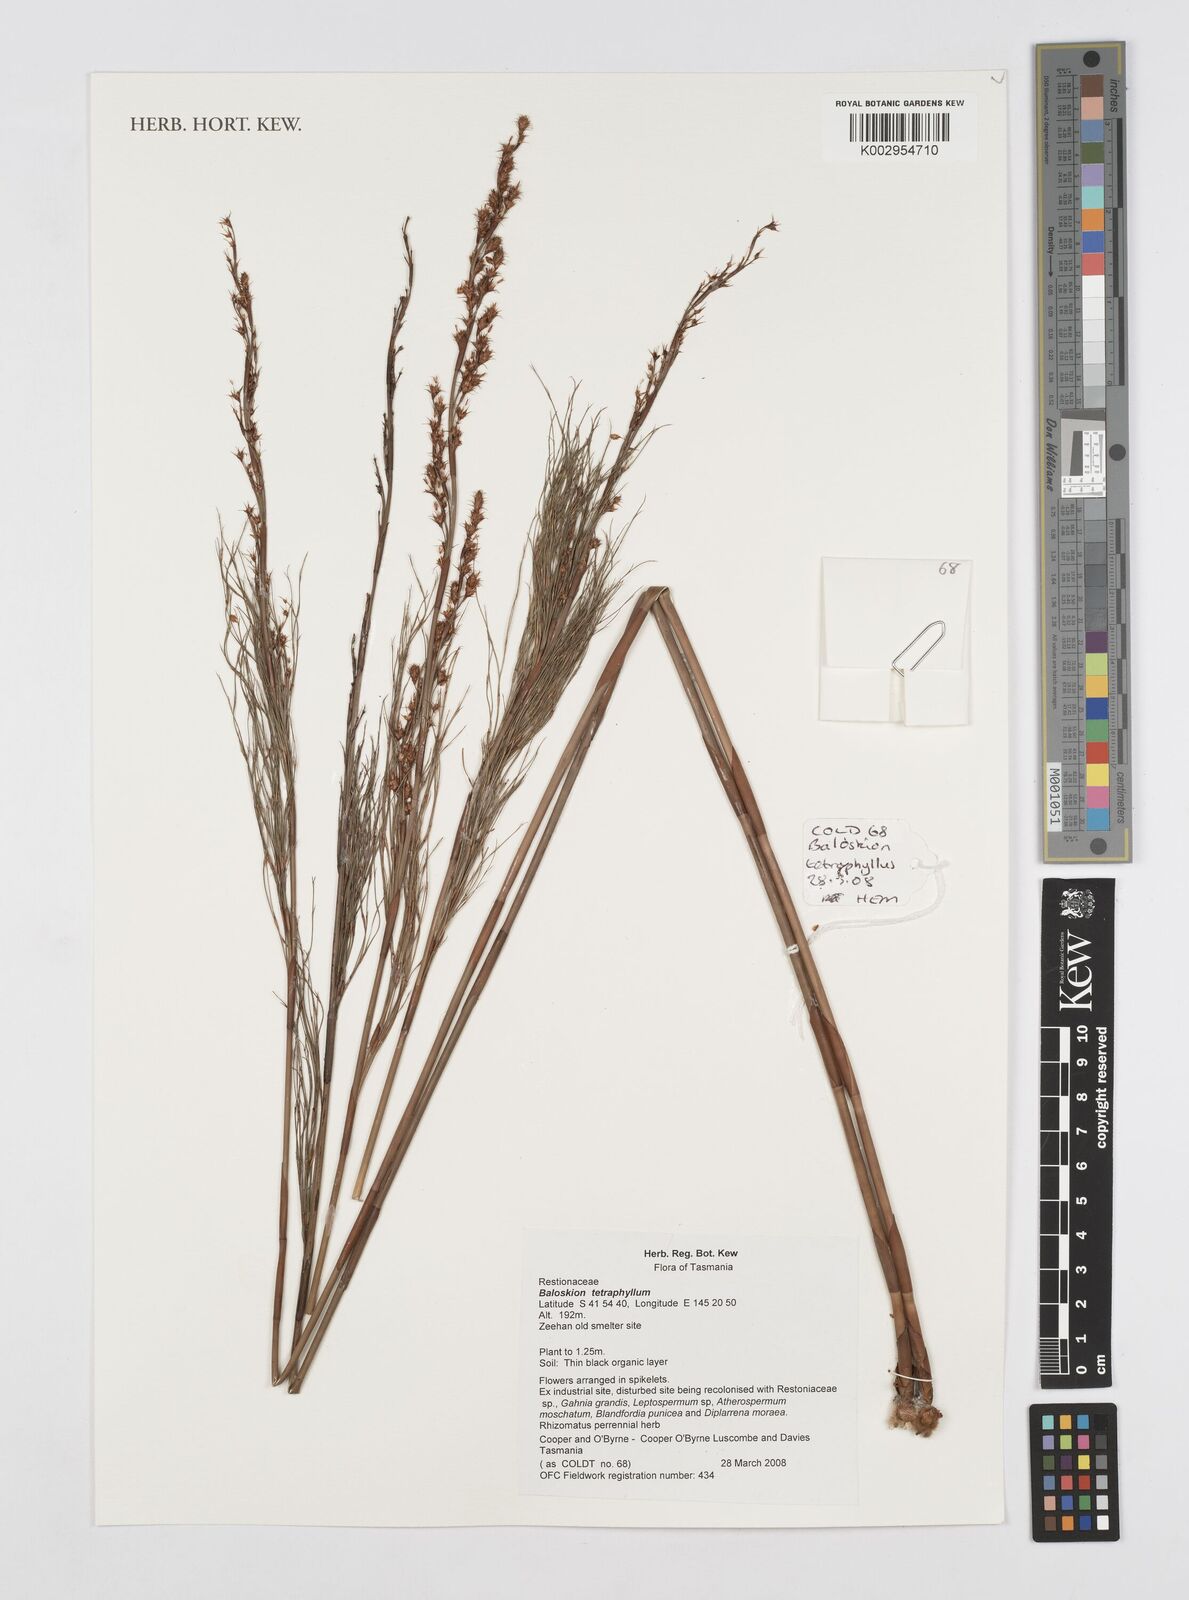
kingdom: Plantae
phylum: Tracheophyta
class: Liliopsida
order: Poales
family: Restionaceae
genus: Baloskion
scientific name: Baloskion tetraphyllum
